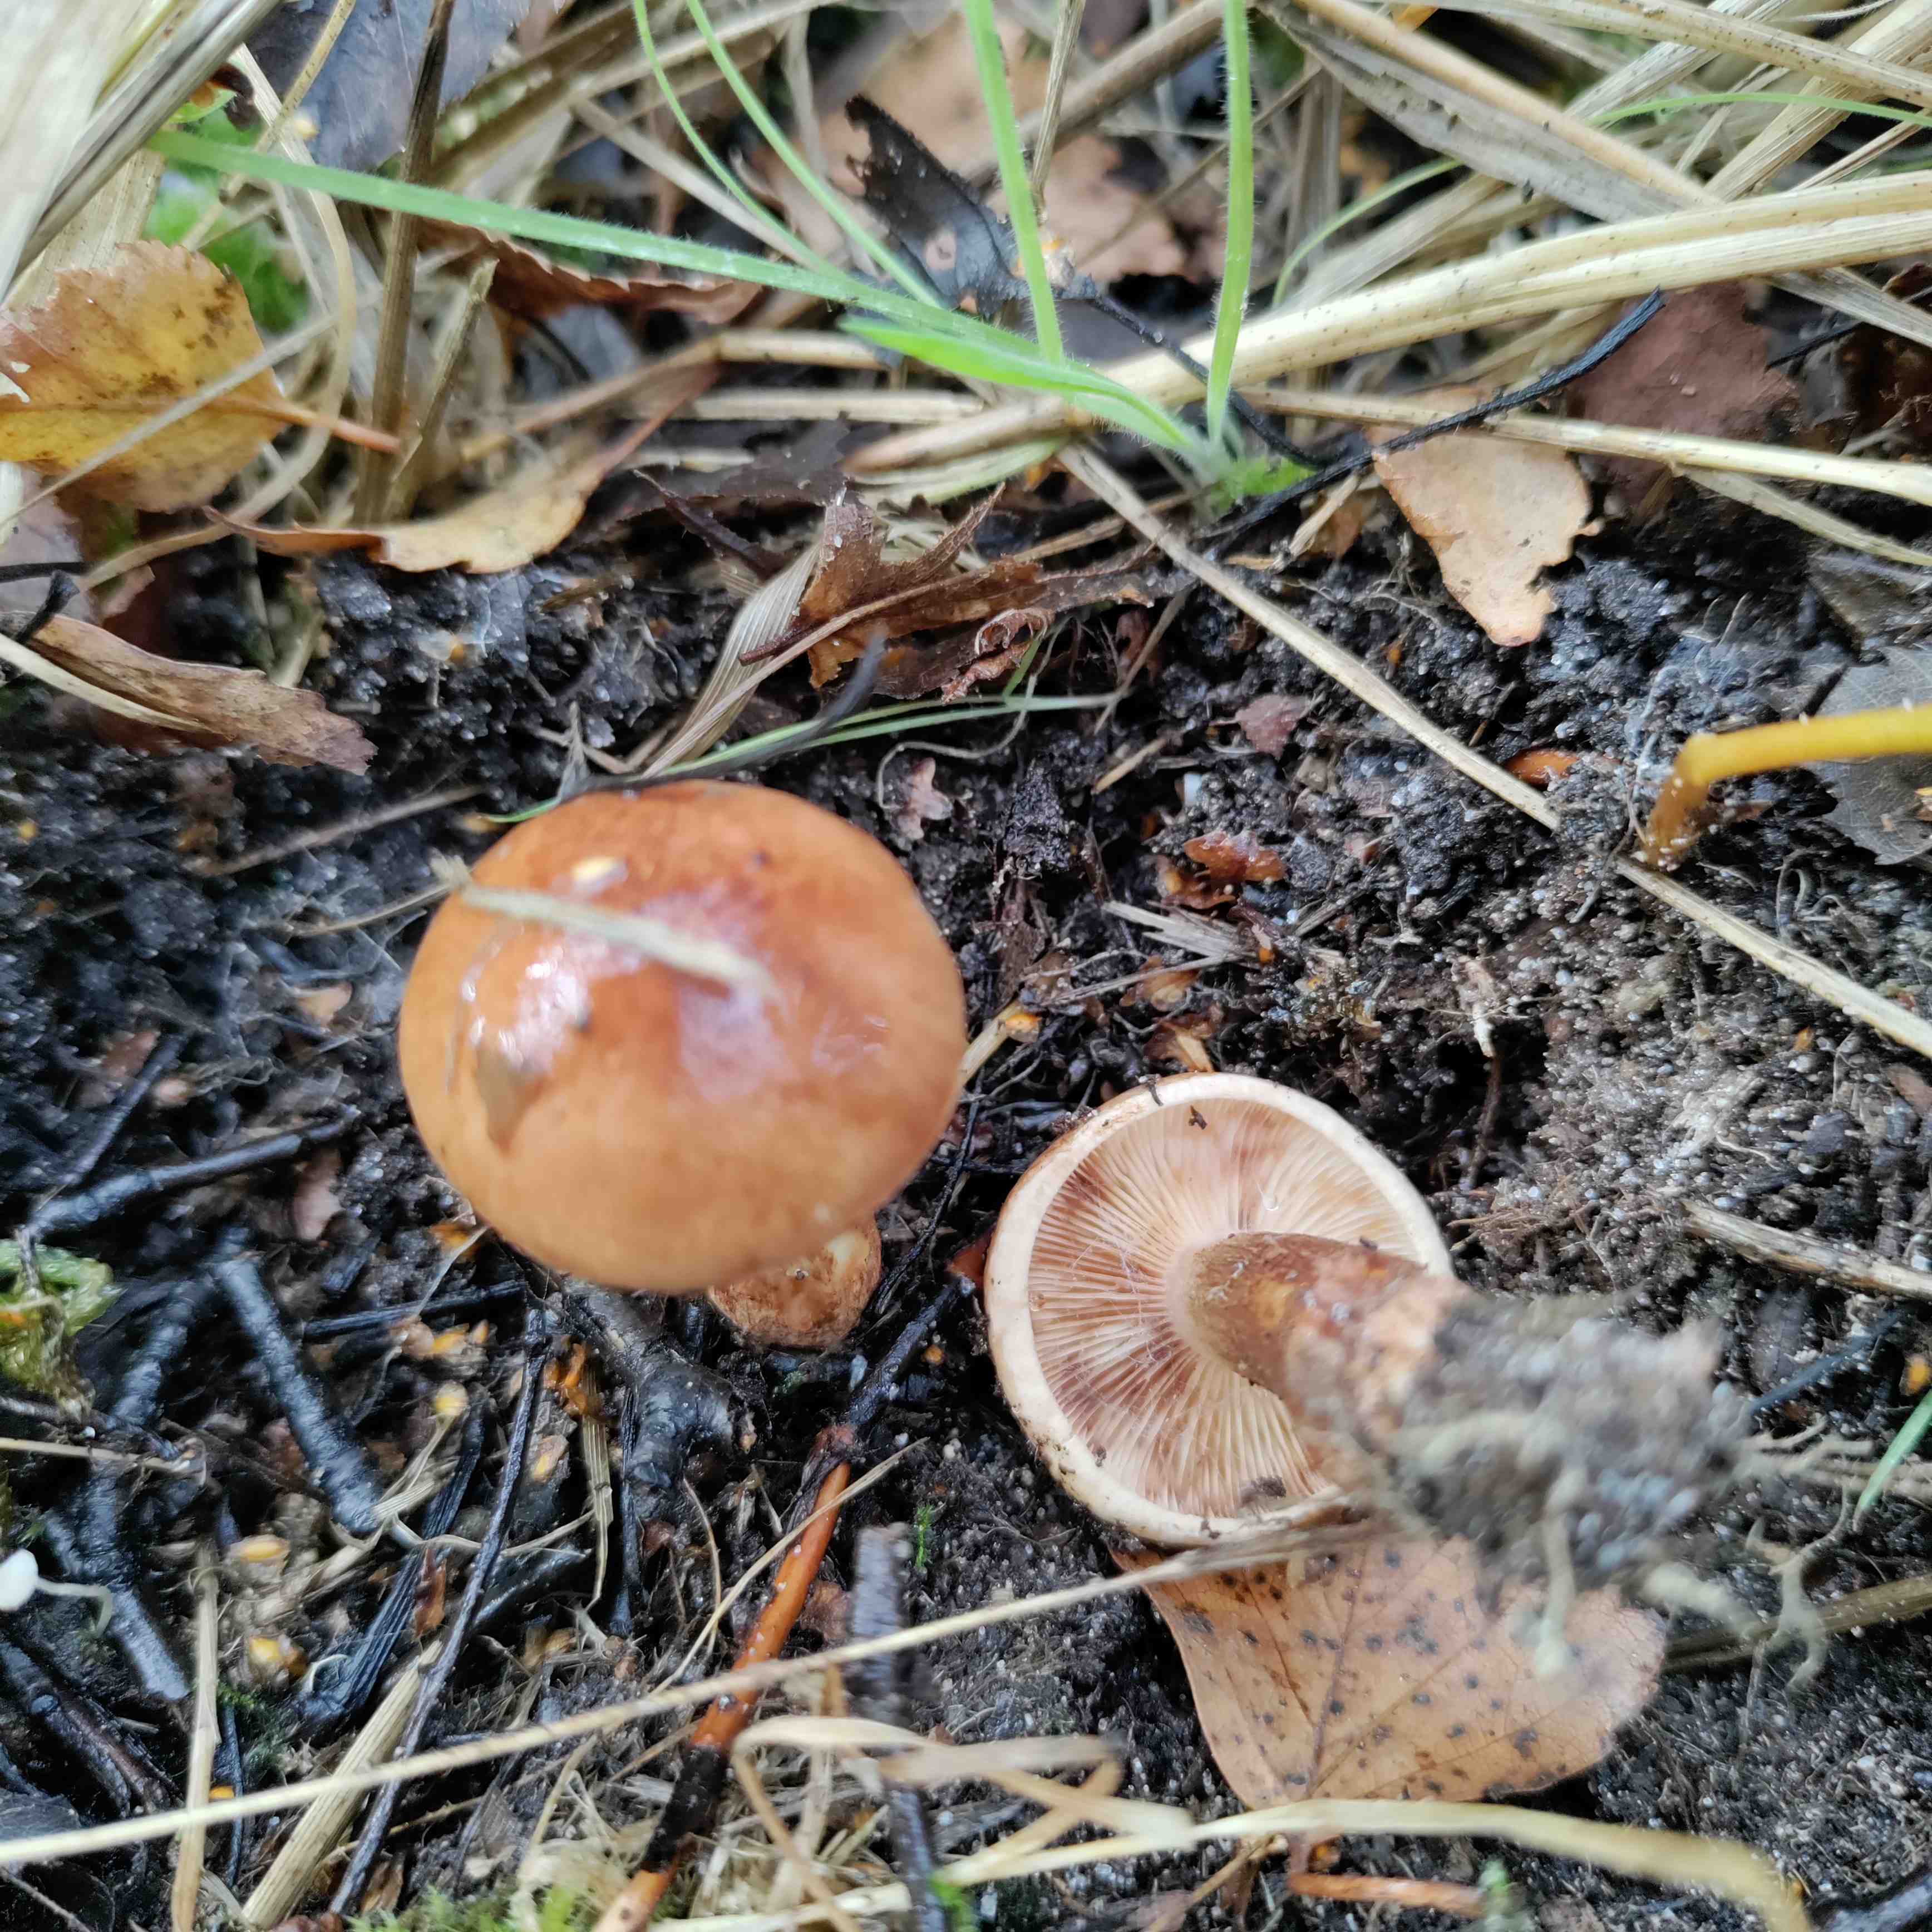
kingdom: Fungi
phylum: Basidiomycota
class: Agaricomycetes
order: Agaricales
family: Tricholomataceae
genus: Tricholoma
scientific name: Tricholoma fulvum
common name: birke-ridderhat
